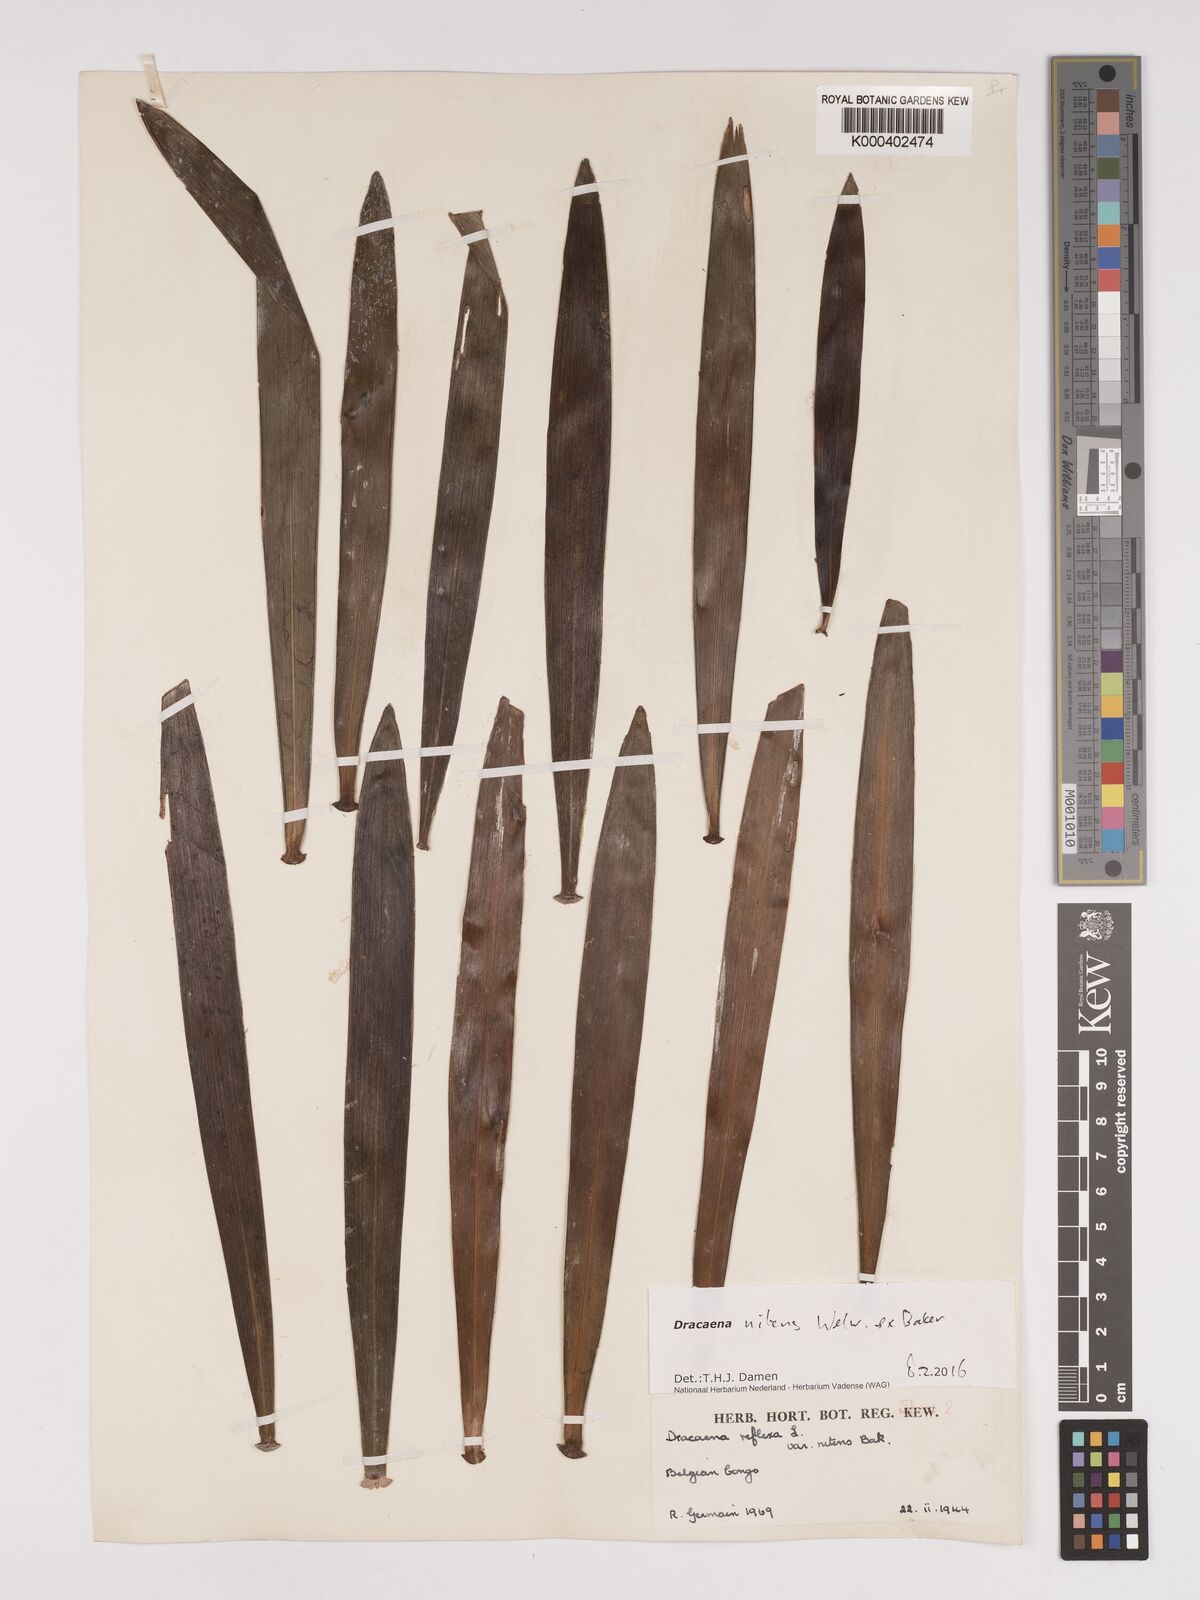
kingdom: Plantae
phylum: Tracheophyta
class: Liliopsida
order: Asparagales
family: Asparagaceae
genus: Dracaena
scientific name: Dracaena nitens
